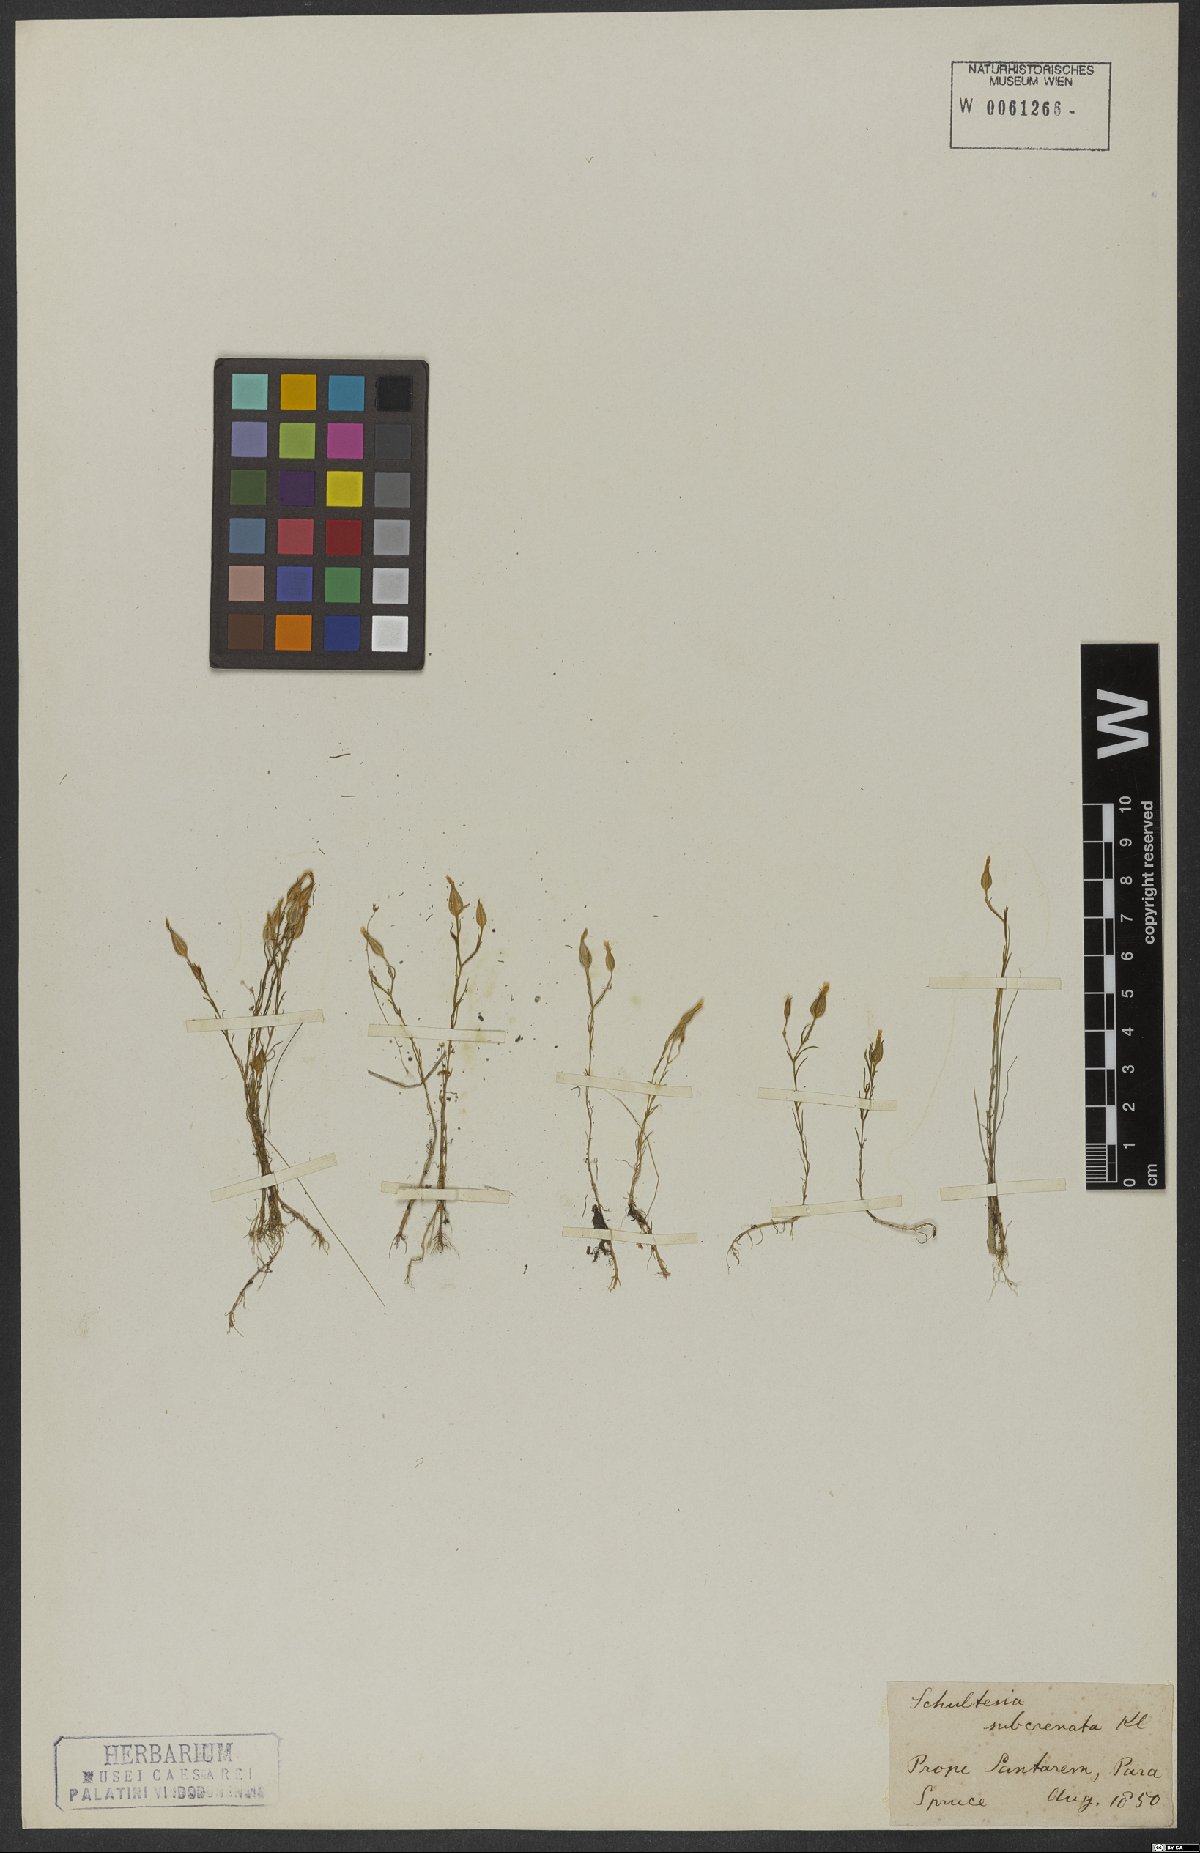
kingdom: Plantae
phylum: Tracheophyta
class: Magnoliopsida
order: Gentianales
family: Gentianaceae
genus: Schultesia
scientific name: Schultesia subcrenata
